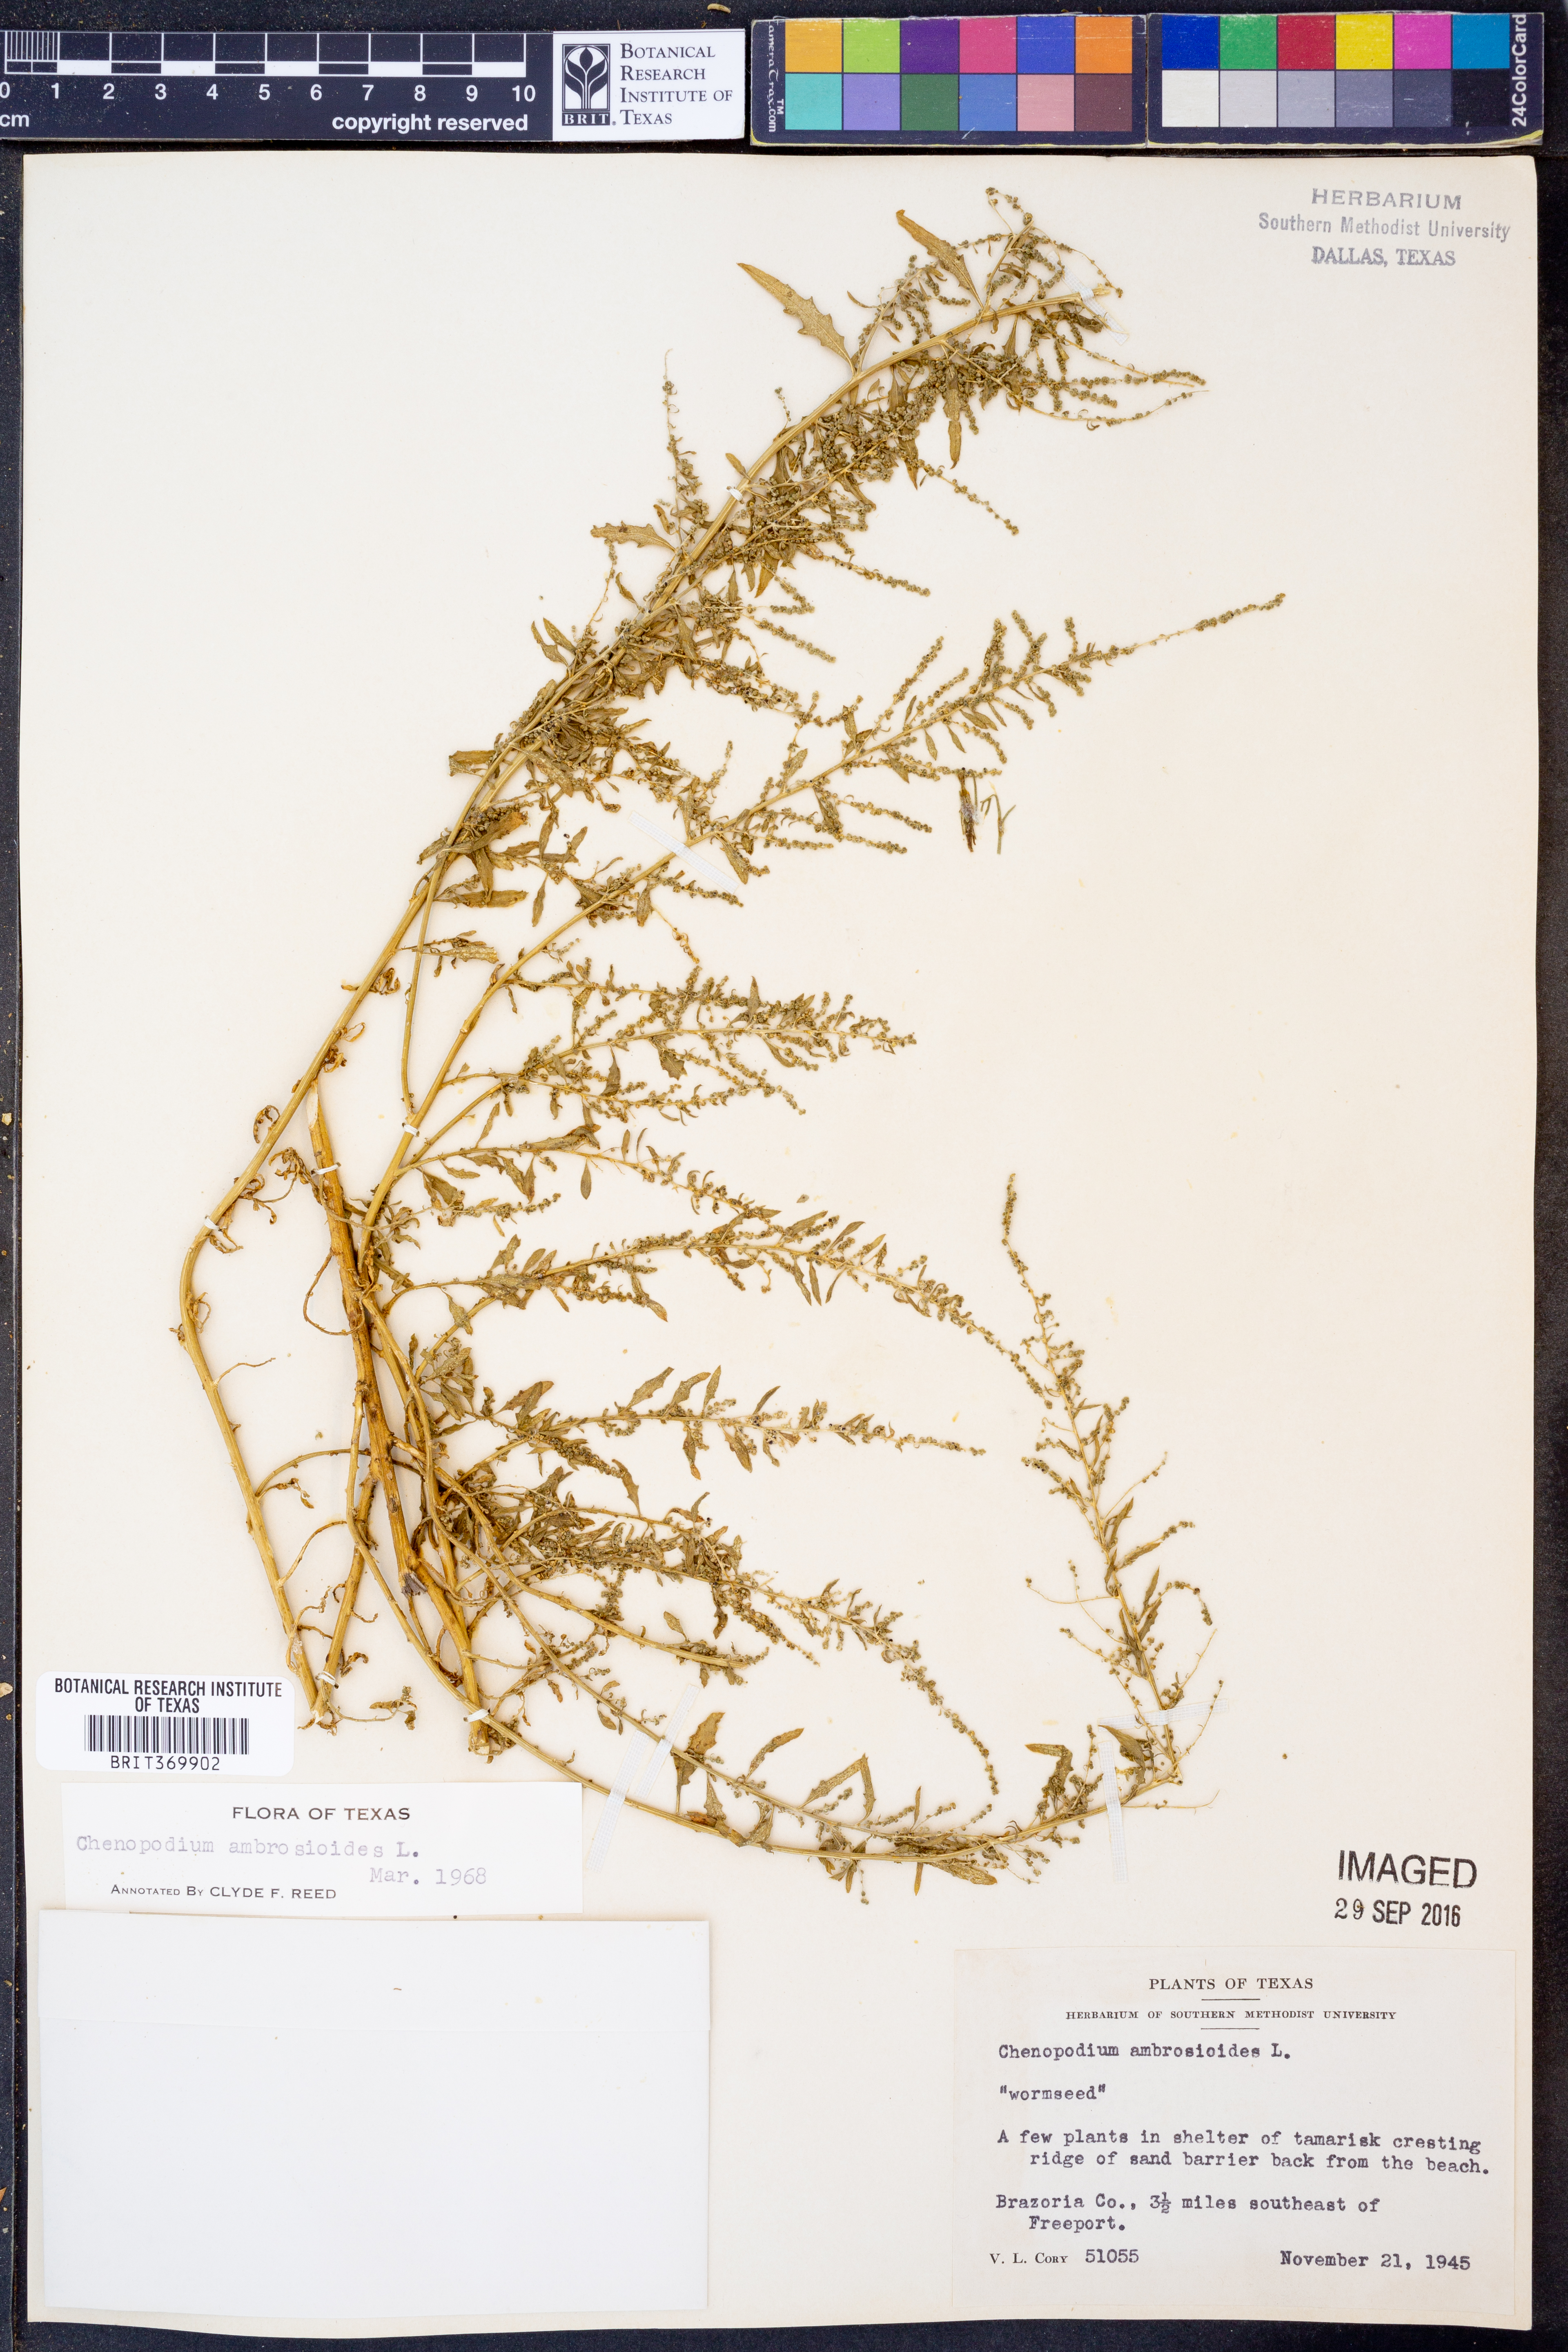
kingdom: Plantae
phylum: Tracheophyta
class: Magnoliopsida
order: Caryophyllales
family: Amaranthaceae
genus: Dysphania
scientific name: Dysphania ambrosioides
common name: Wormseed
